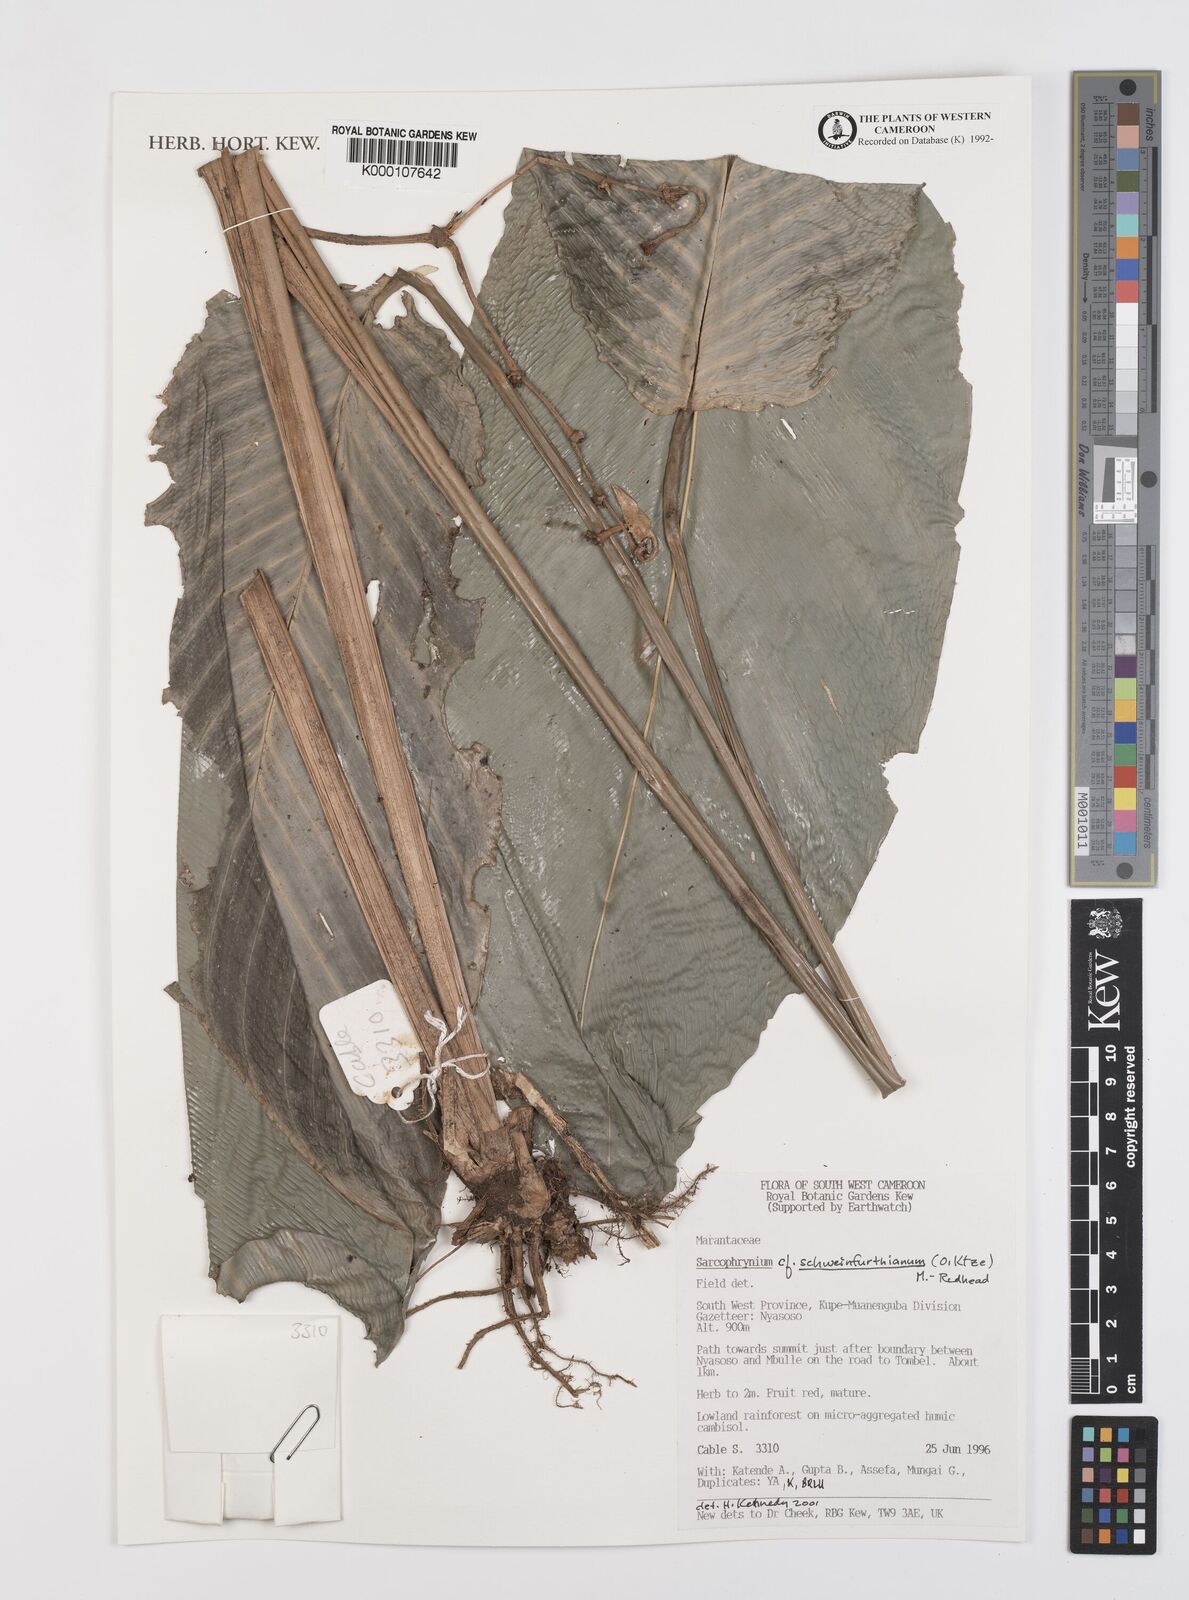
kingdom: Plantae
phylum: Tracheophyta
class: Liliopsida
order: Zingiberales
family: Marantaceae
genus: Sarcophrynium
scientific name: Sarcophrynium schweinfurthianum
